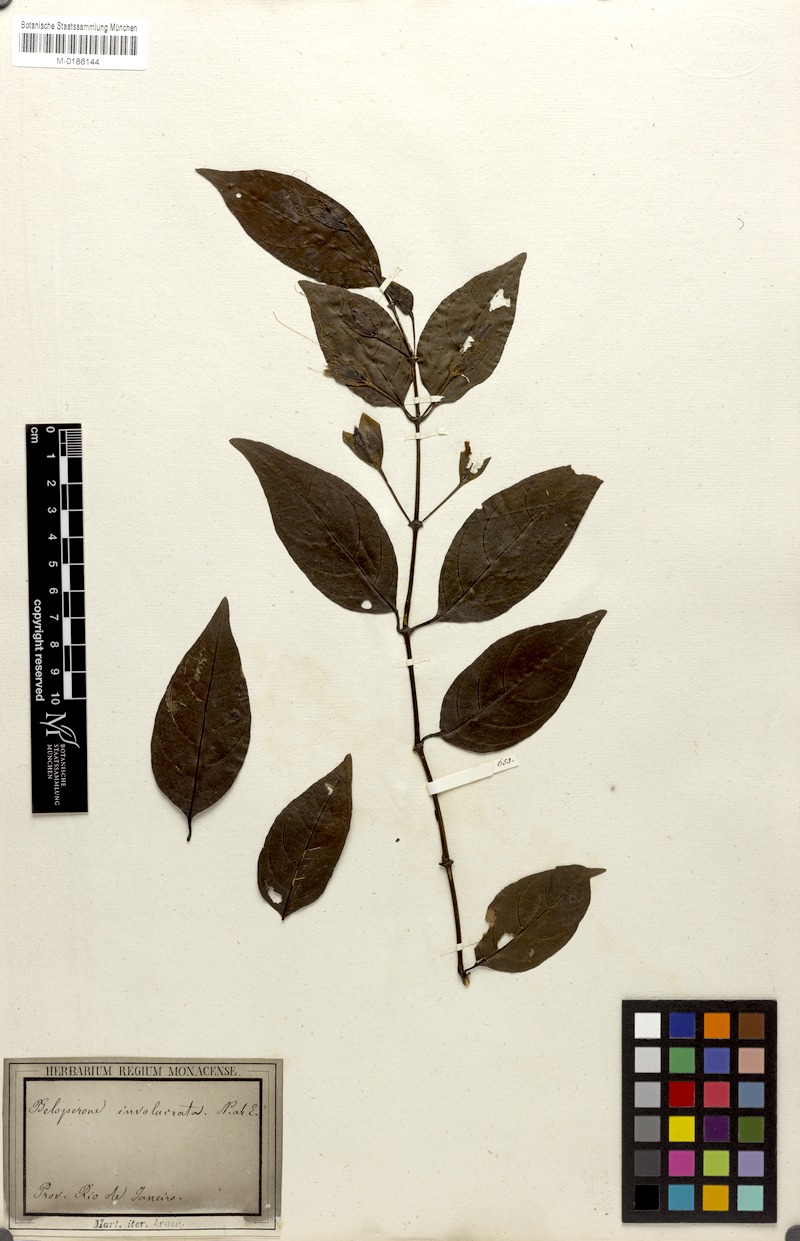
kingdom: Plantae
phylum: Tracheophyta
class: Magnoliopsida
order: Lamiales
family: Acanthaceae
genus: Justicia
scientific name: Justicia involucrata
